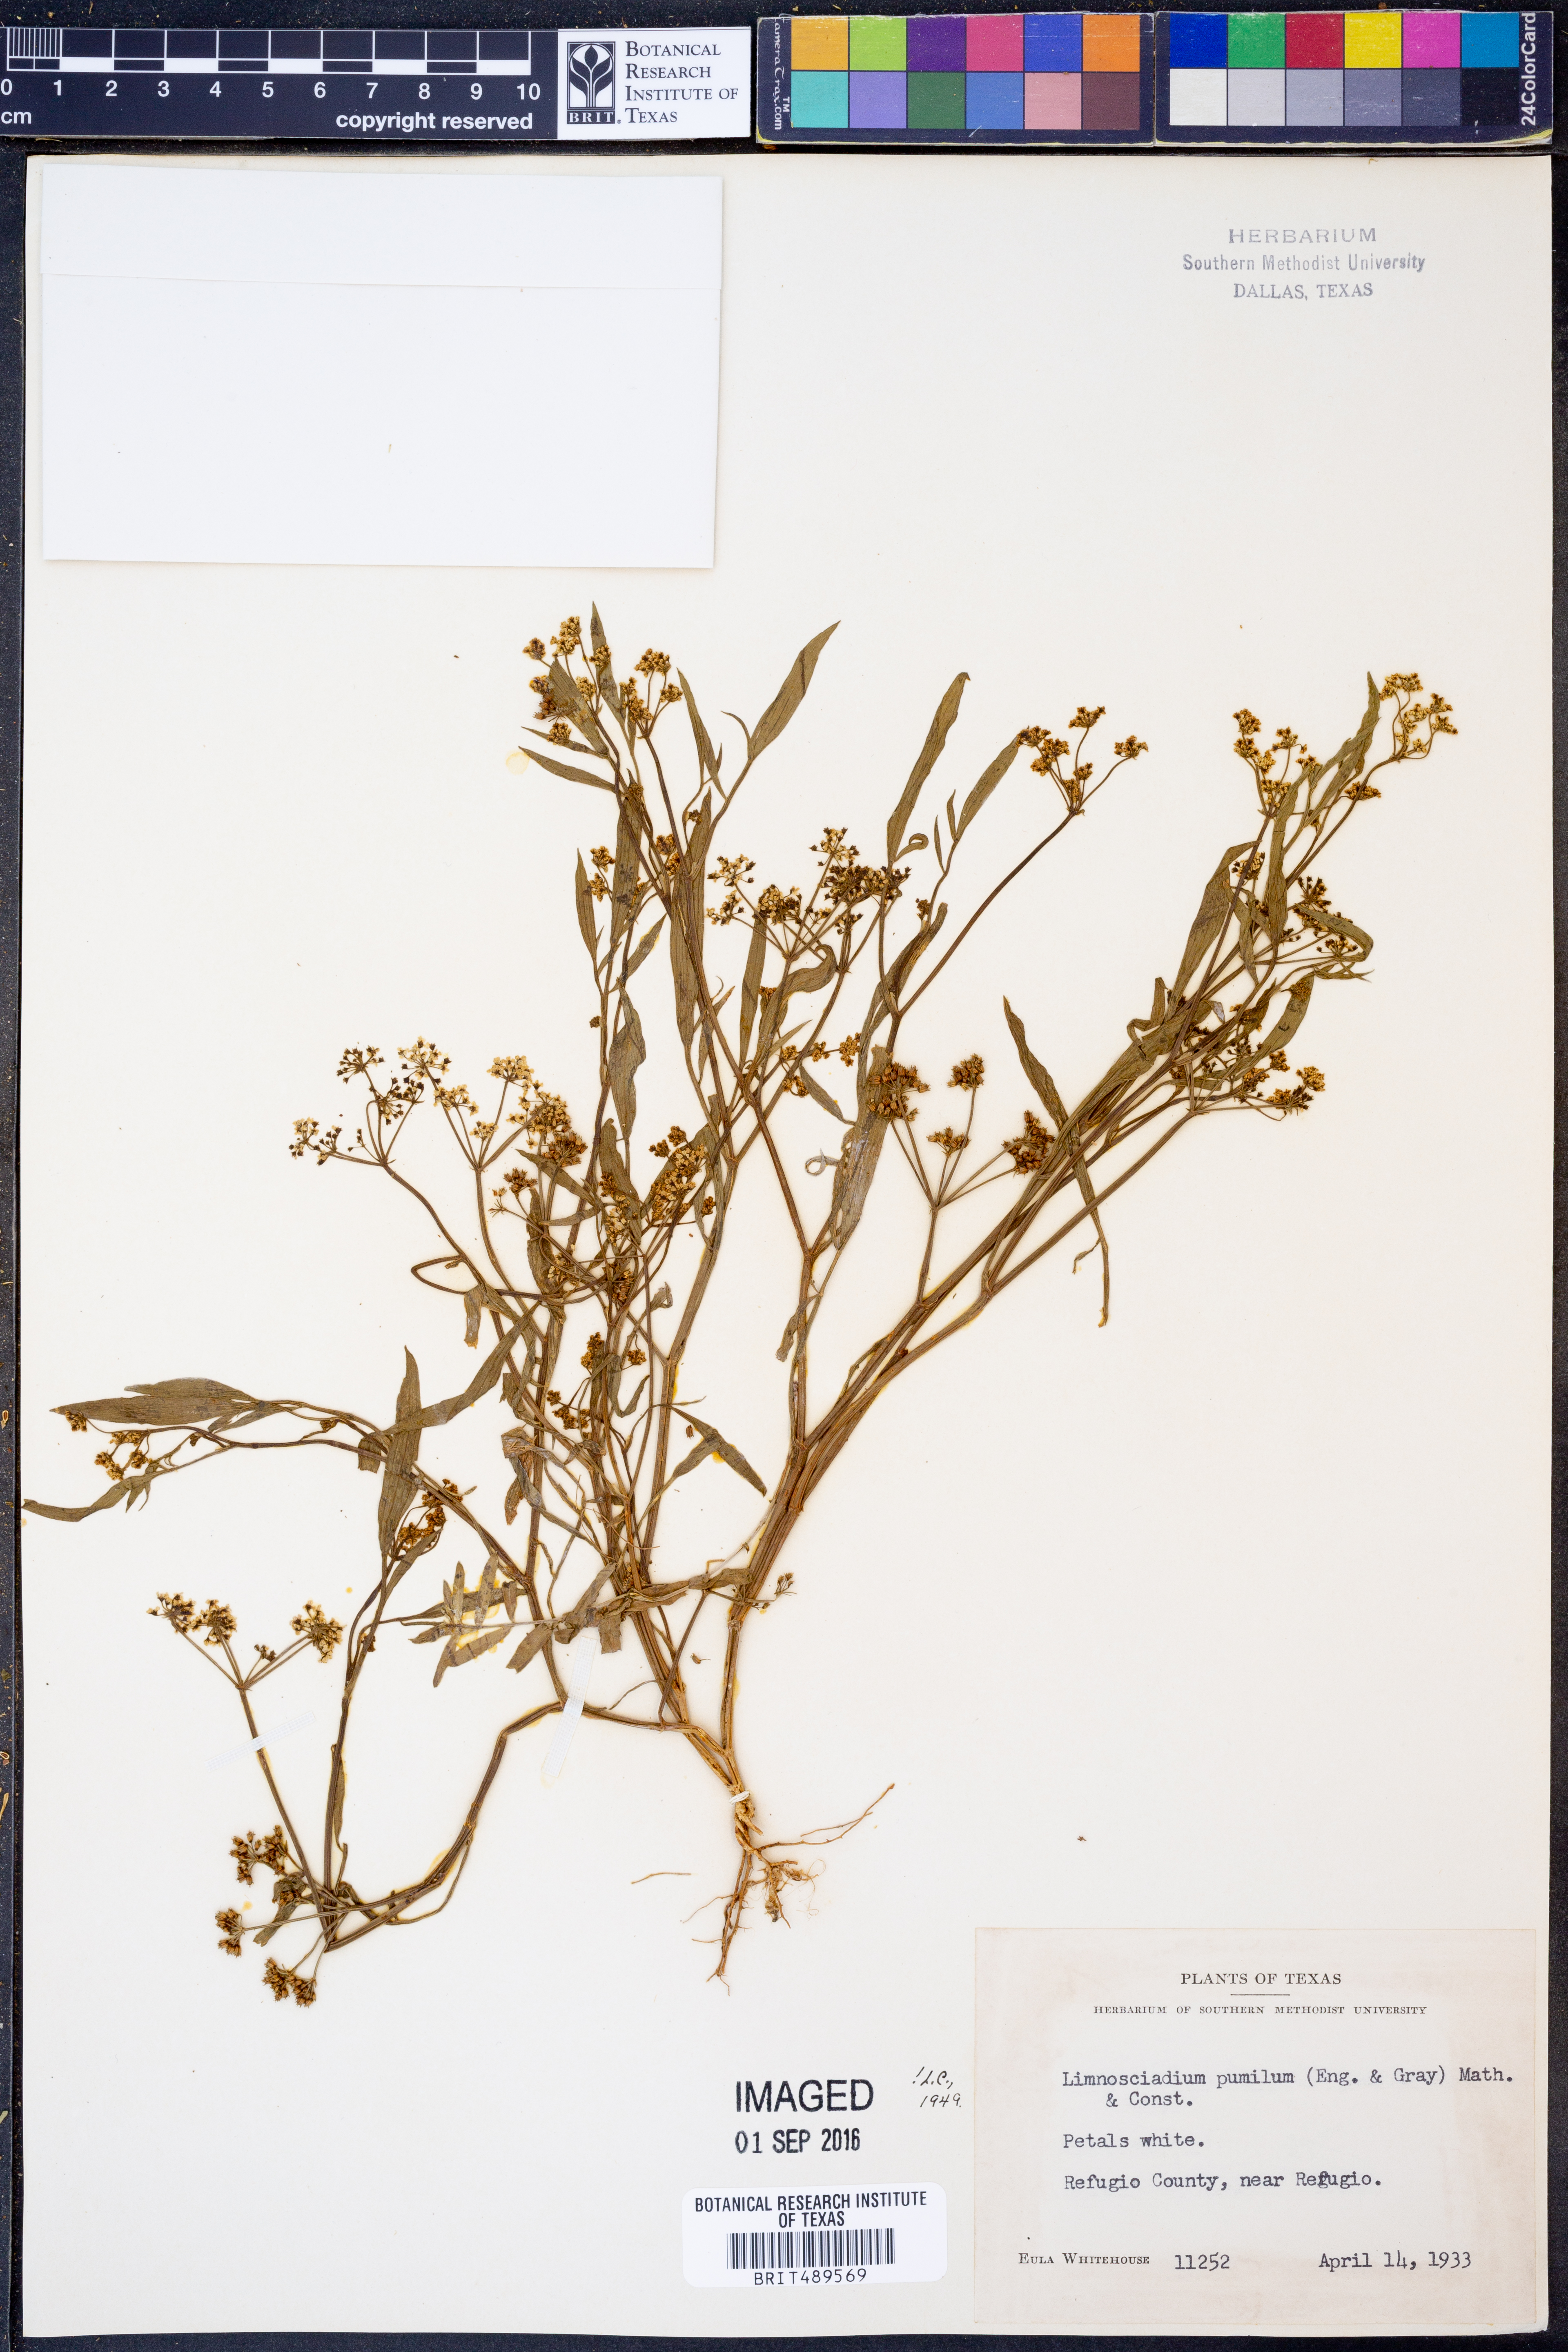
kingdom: Plantae
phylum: Tracheophyta
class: Magnoliopsida
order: Apiales
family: Apiaceae
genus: Limnosciadium
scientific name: Limnosciadium pinnatum
